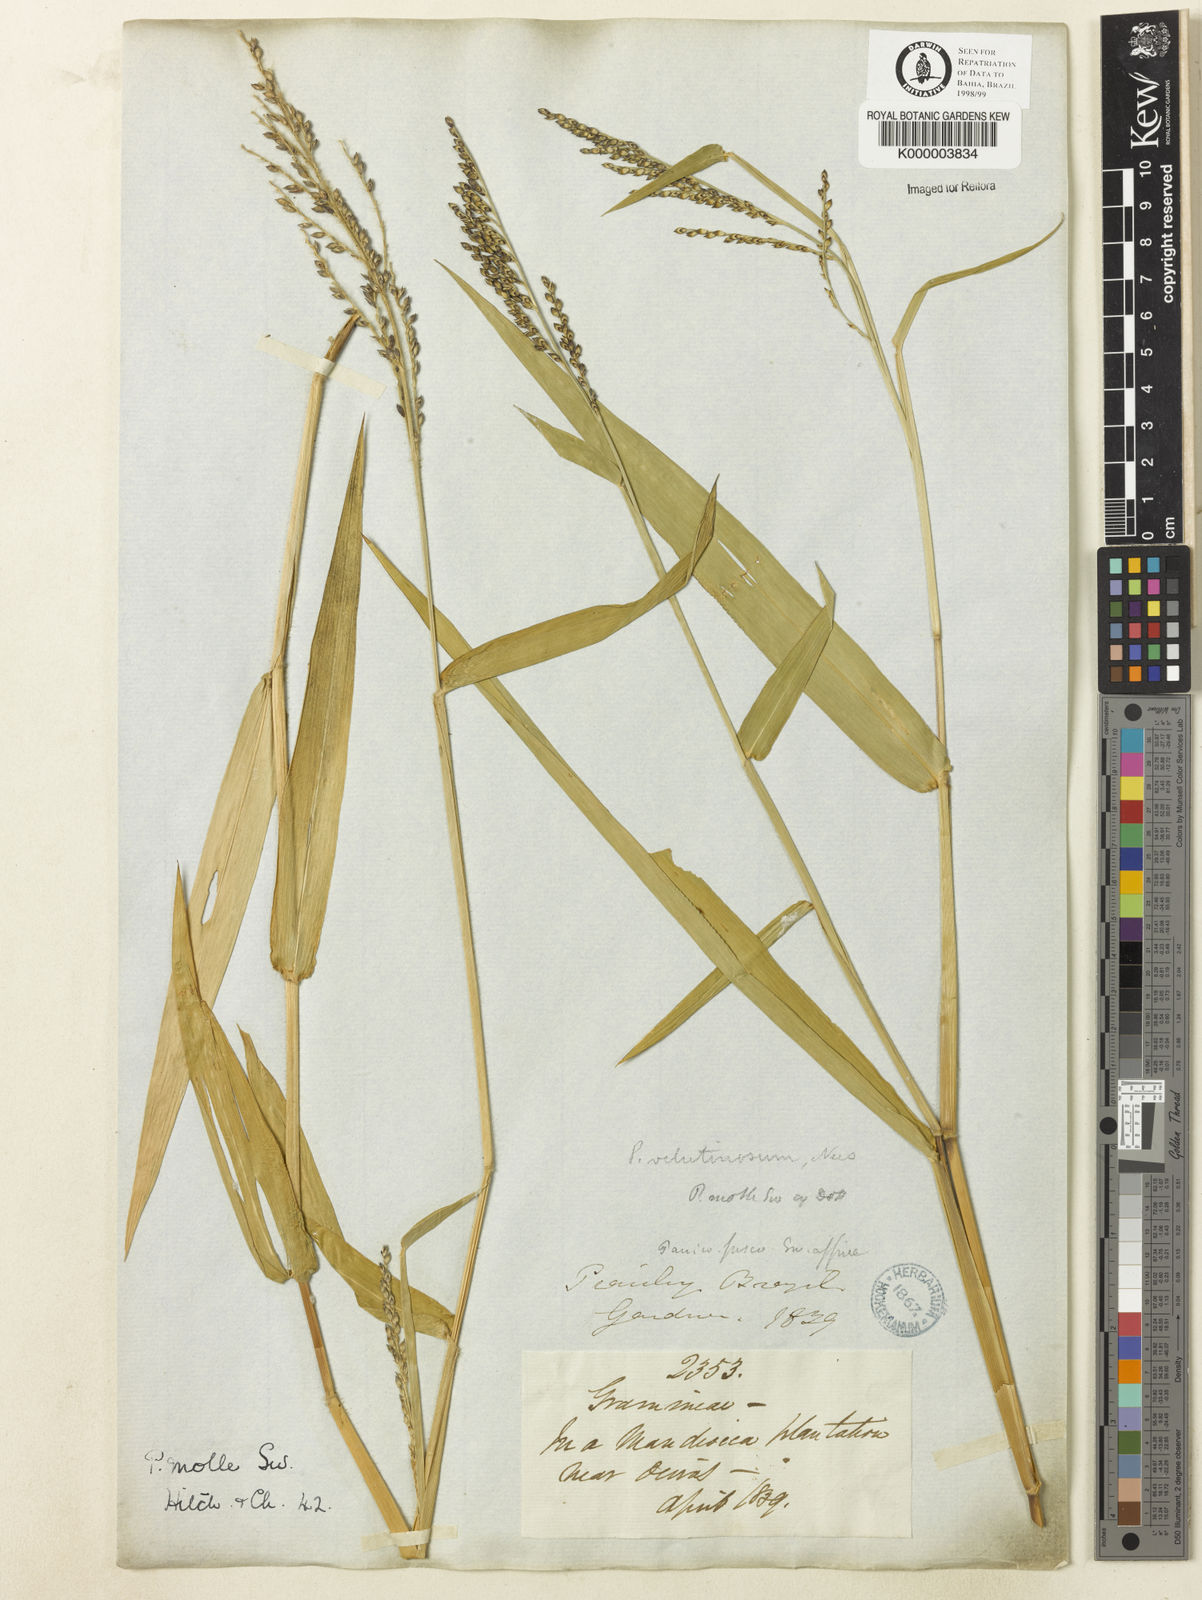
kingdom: Plantae
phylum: Tracheophyta
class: Liliopsida
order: Poales
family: Poaceae
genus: Urochloa
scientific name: Urochloa mollis
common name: Grass
